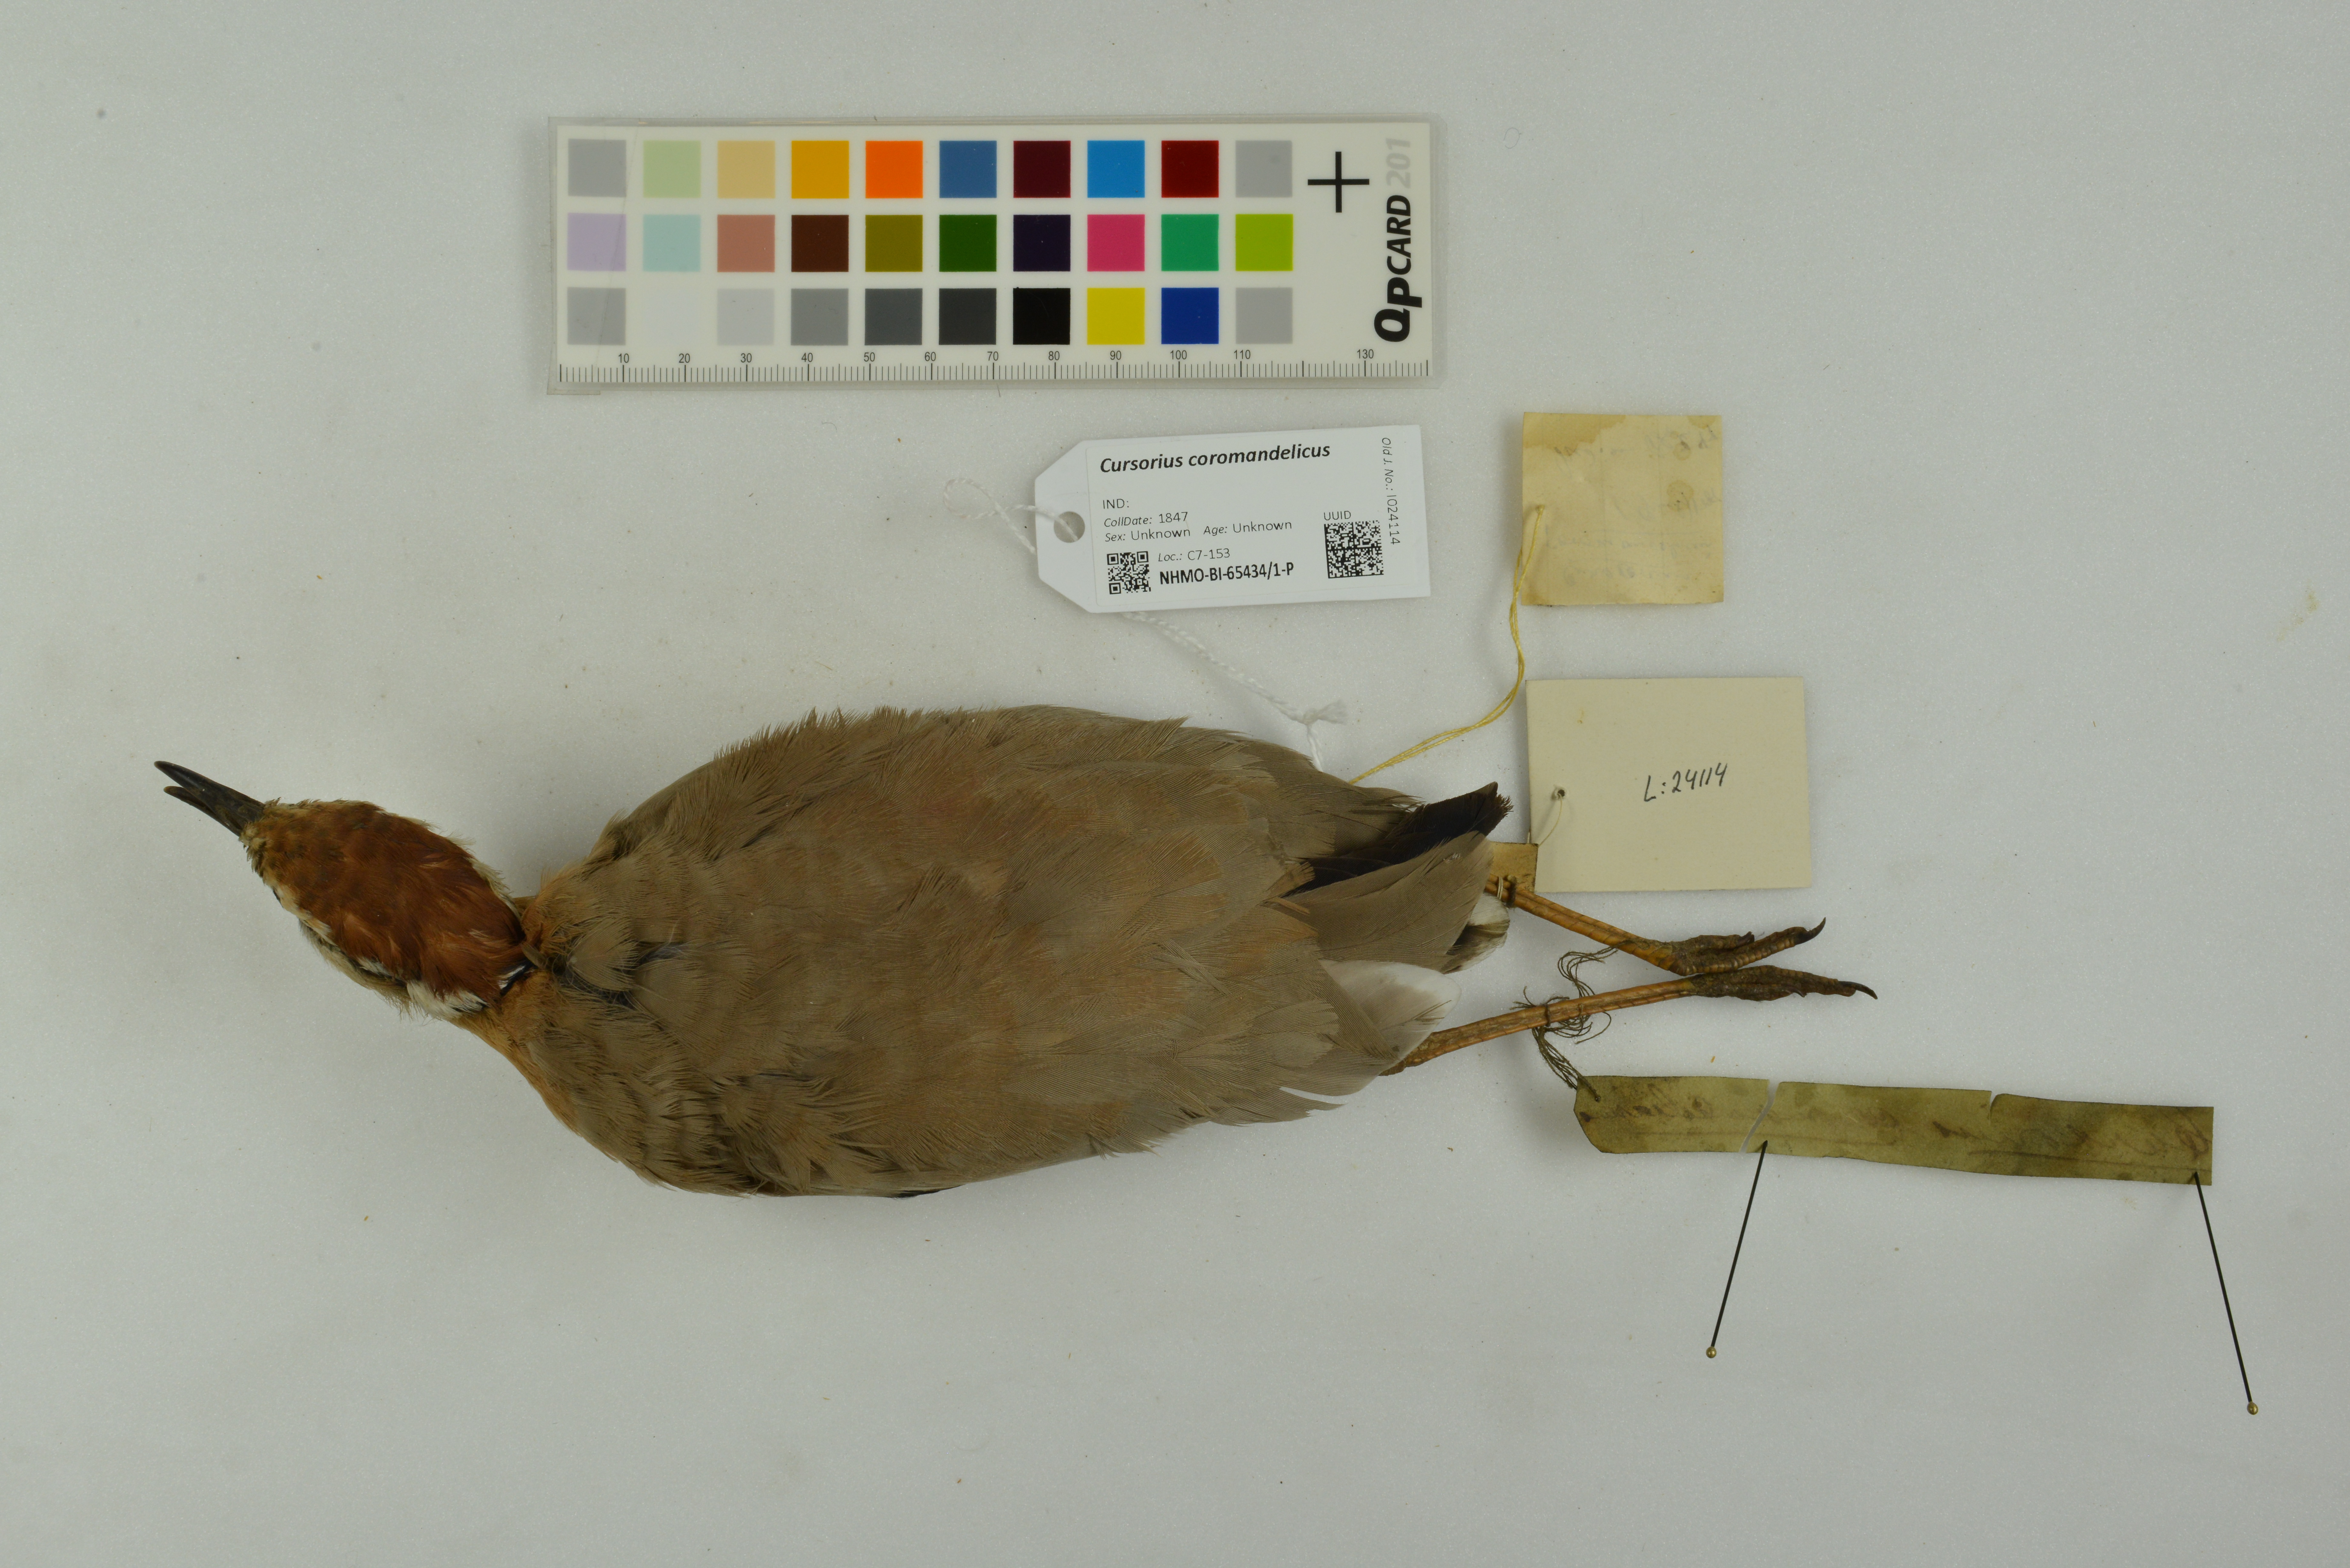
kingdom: Animalia
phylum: Chordata
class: Aves
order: Charadriiformes
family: Glareolidae
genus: Cursorius
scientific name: Cursorius coromandelicus
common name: Indian courser
